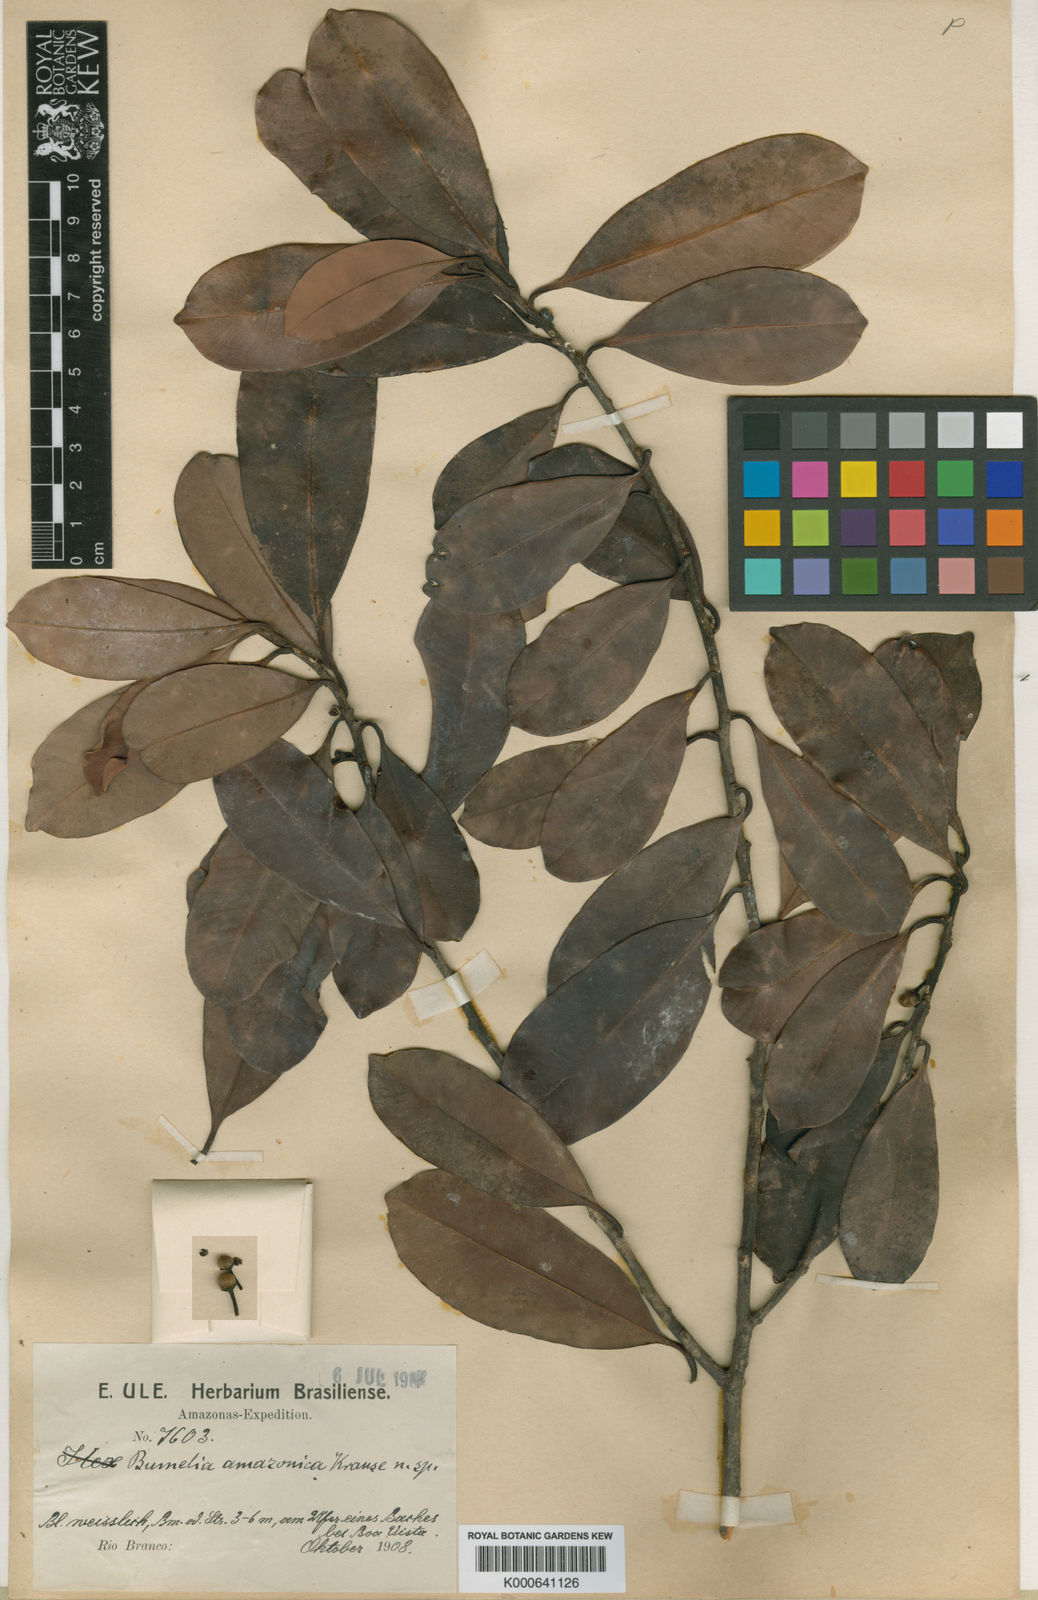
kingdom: Plantae
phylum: Tracheophyta
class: Magnoliopsida
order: Ericales
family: Sapotaceae
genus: Pouteria
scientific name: Pouteria amazonica
